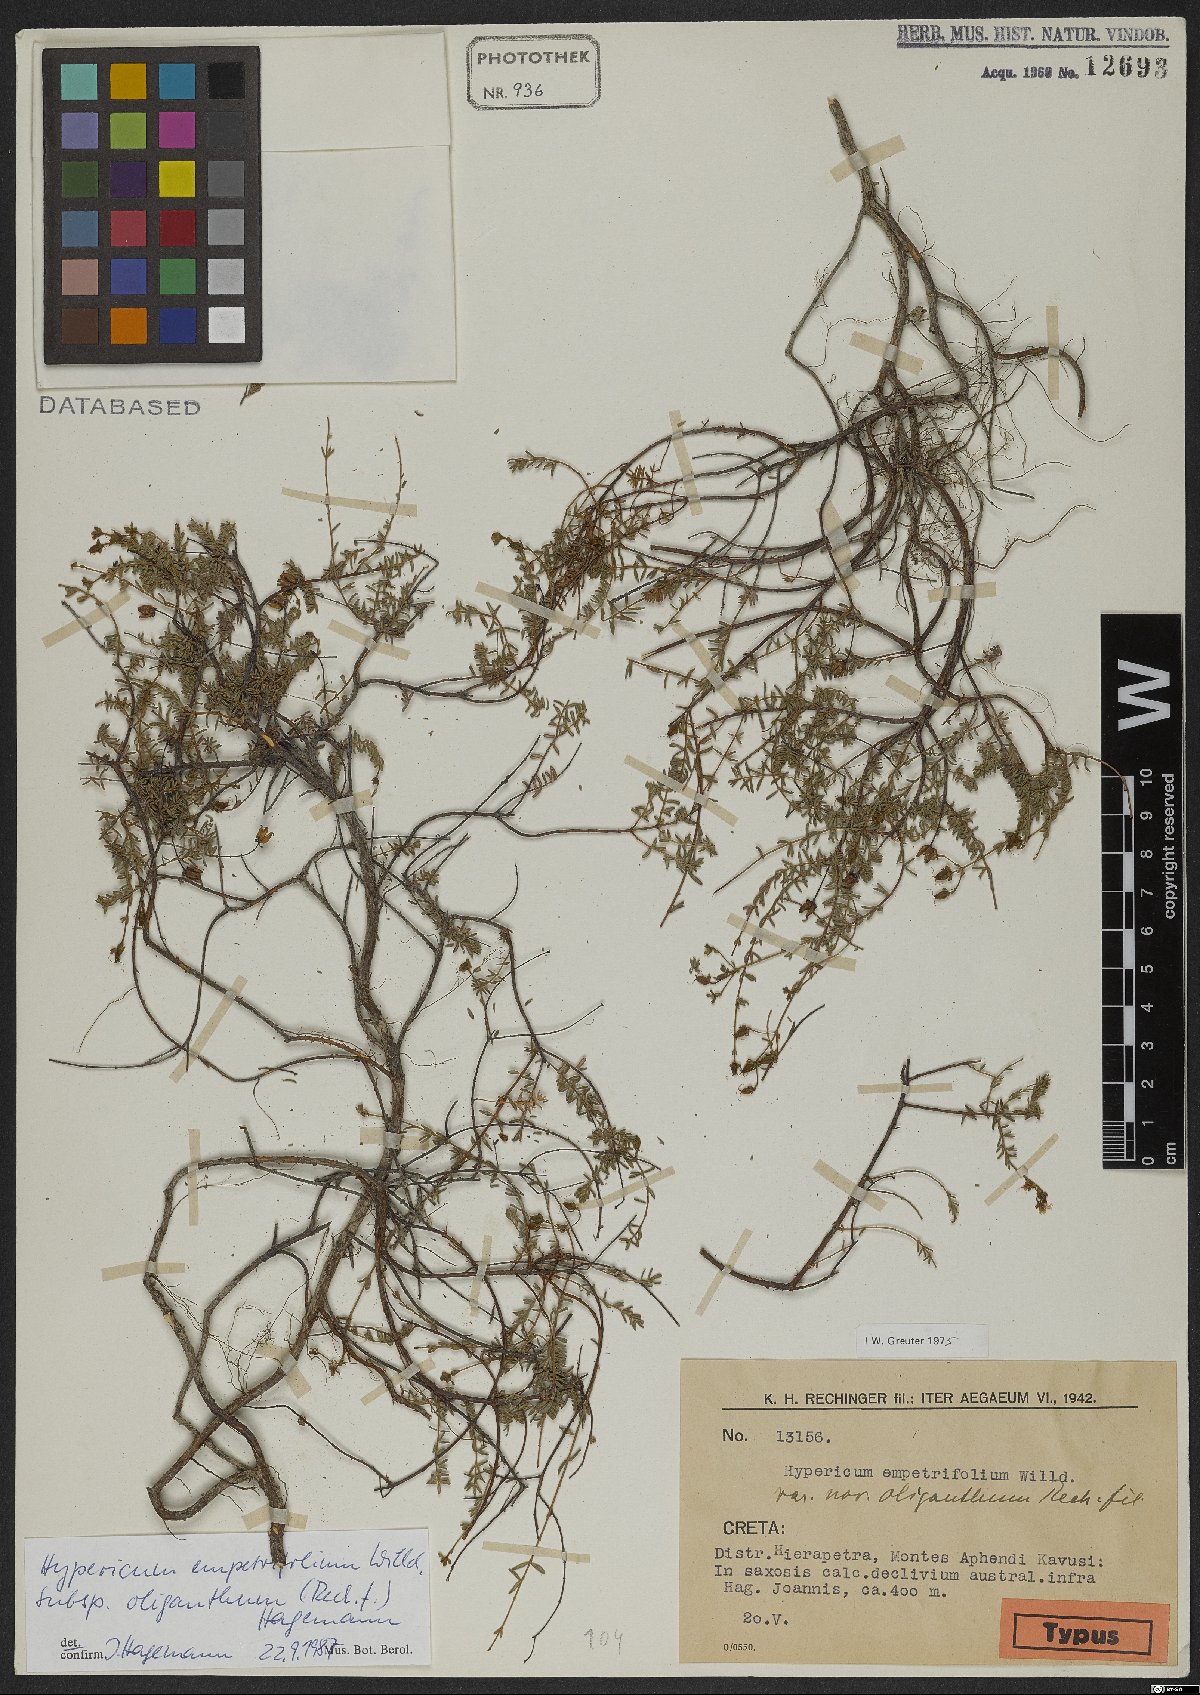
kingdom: Plantae
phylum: Tracheophyta
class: Magnoliopsida
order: Malpighiales
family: Hypericaceae
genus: Hypericum
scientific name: Hypericum empetrifolium
